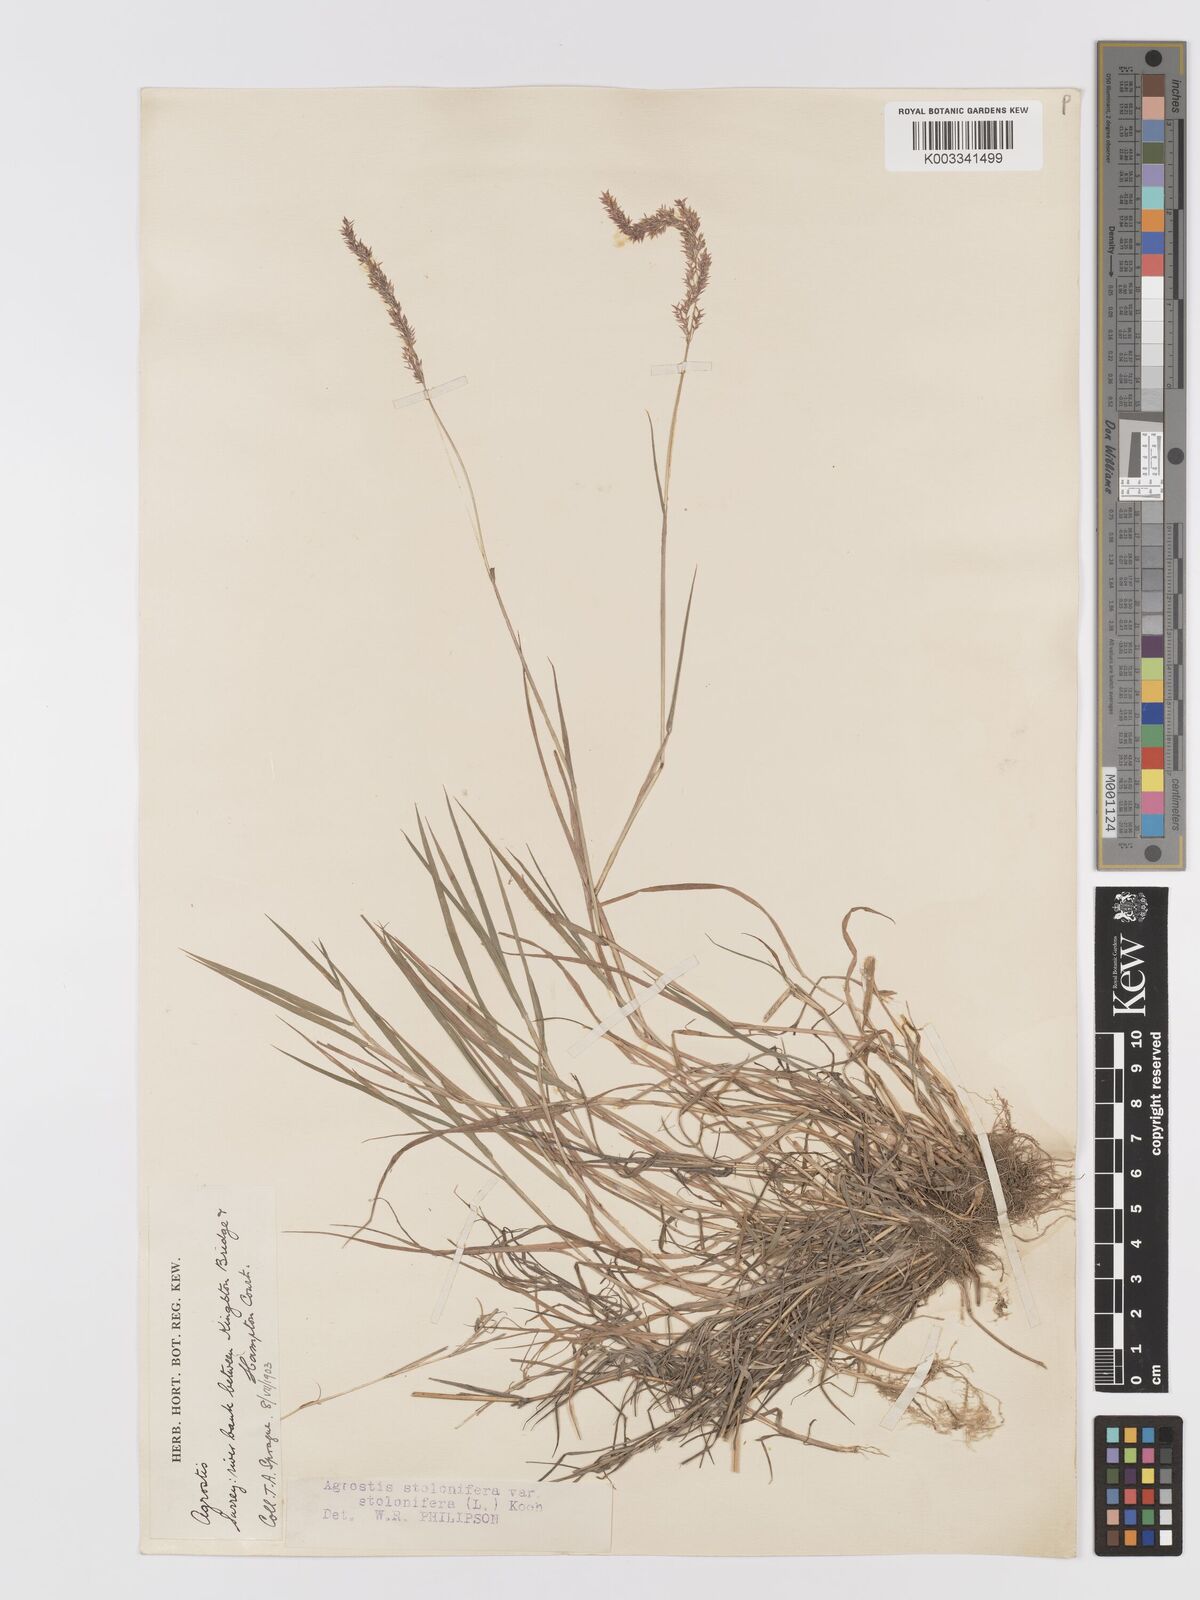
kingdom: Plantae
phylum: Tracheophyta
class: Liliopsida
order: Poales
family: Poaceae
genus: Agrostis
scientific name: Agrostis stolonifera
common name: Creeping bentgrass
